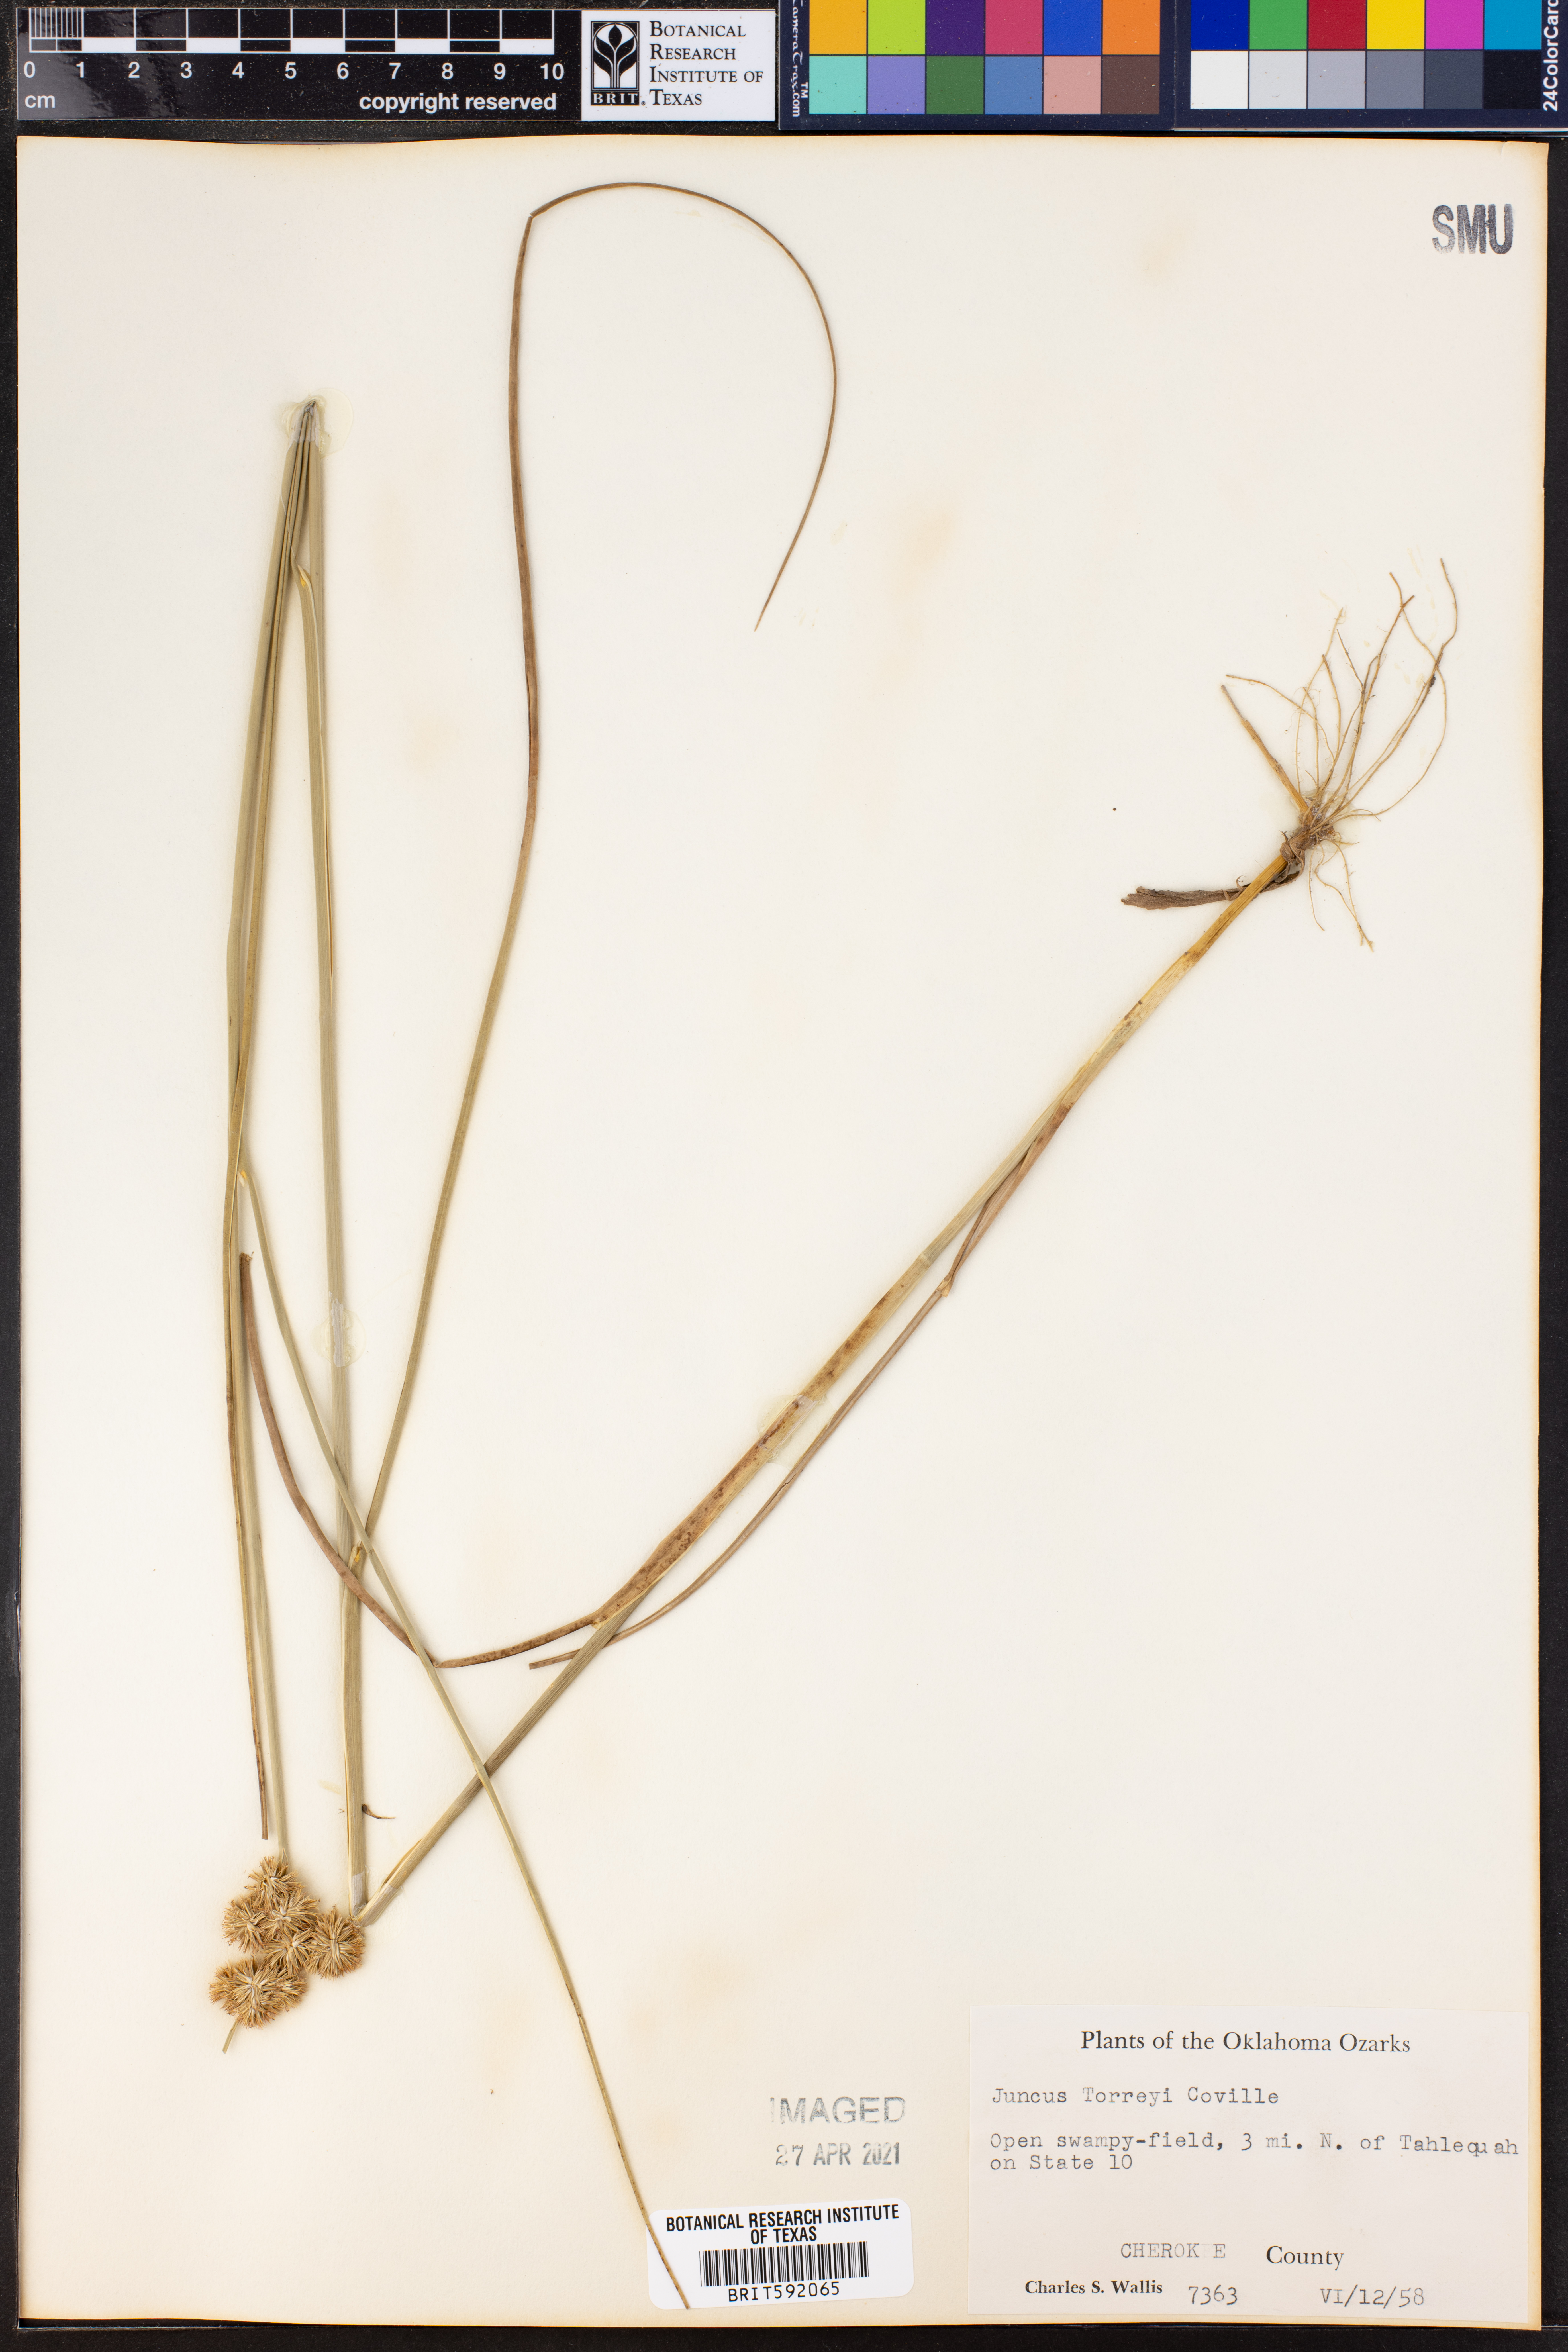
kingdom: Plantae
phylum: Tracheophyta
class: Liliopsida
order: Poales
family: Juncaceae
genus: Juncus
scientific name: Juncus torreyi
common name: Torrey's rush
